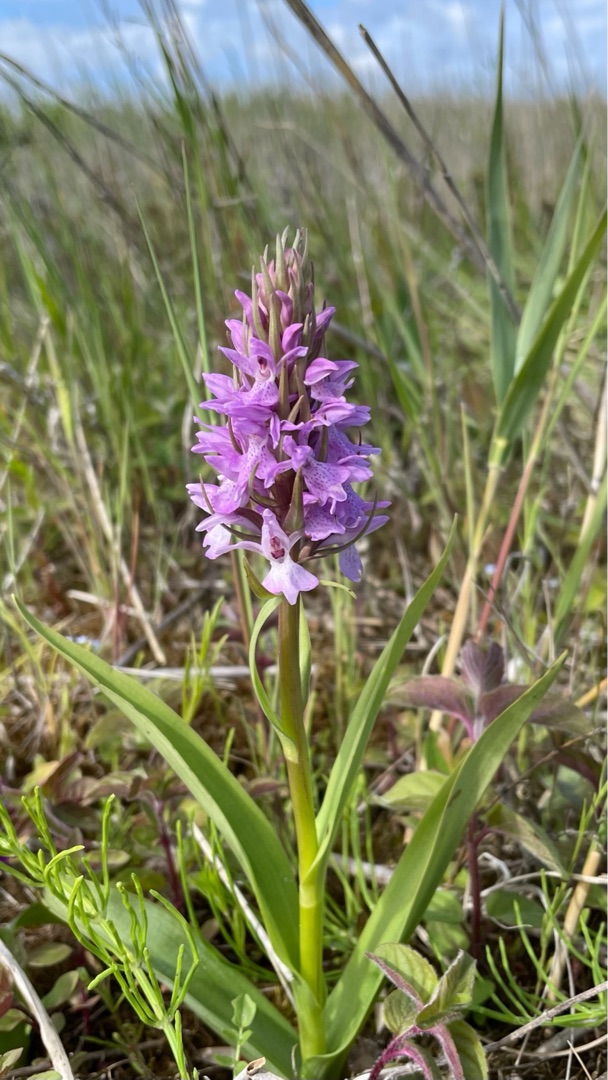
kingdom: Plantae
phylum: Tracheophyta
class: Liliopsida
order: Asparagales
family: Orchidaceae
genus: Dactylorhiza
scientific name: Dactylorhiza majalis
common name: Priklæbet gøgeurt
